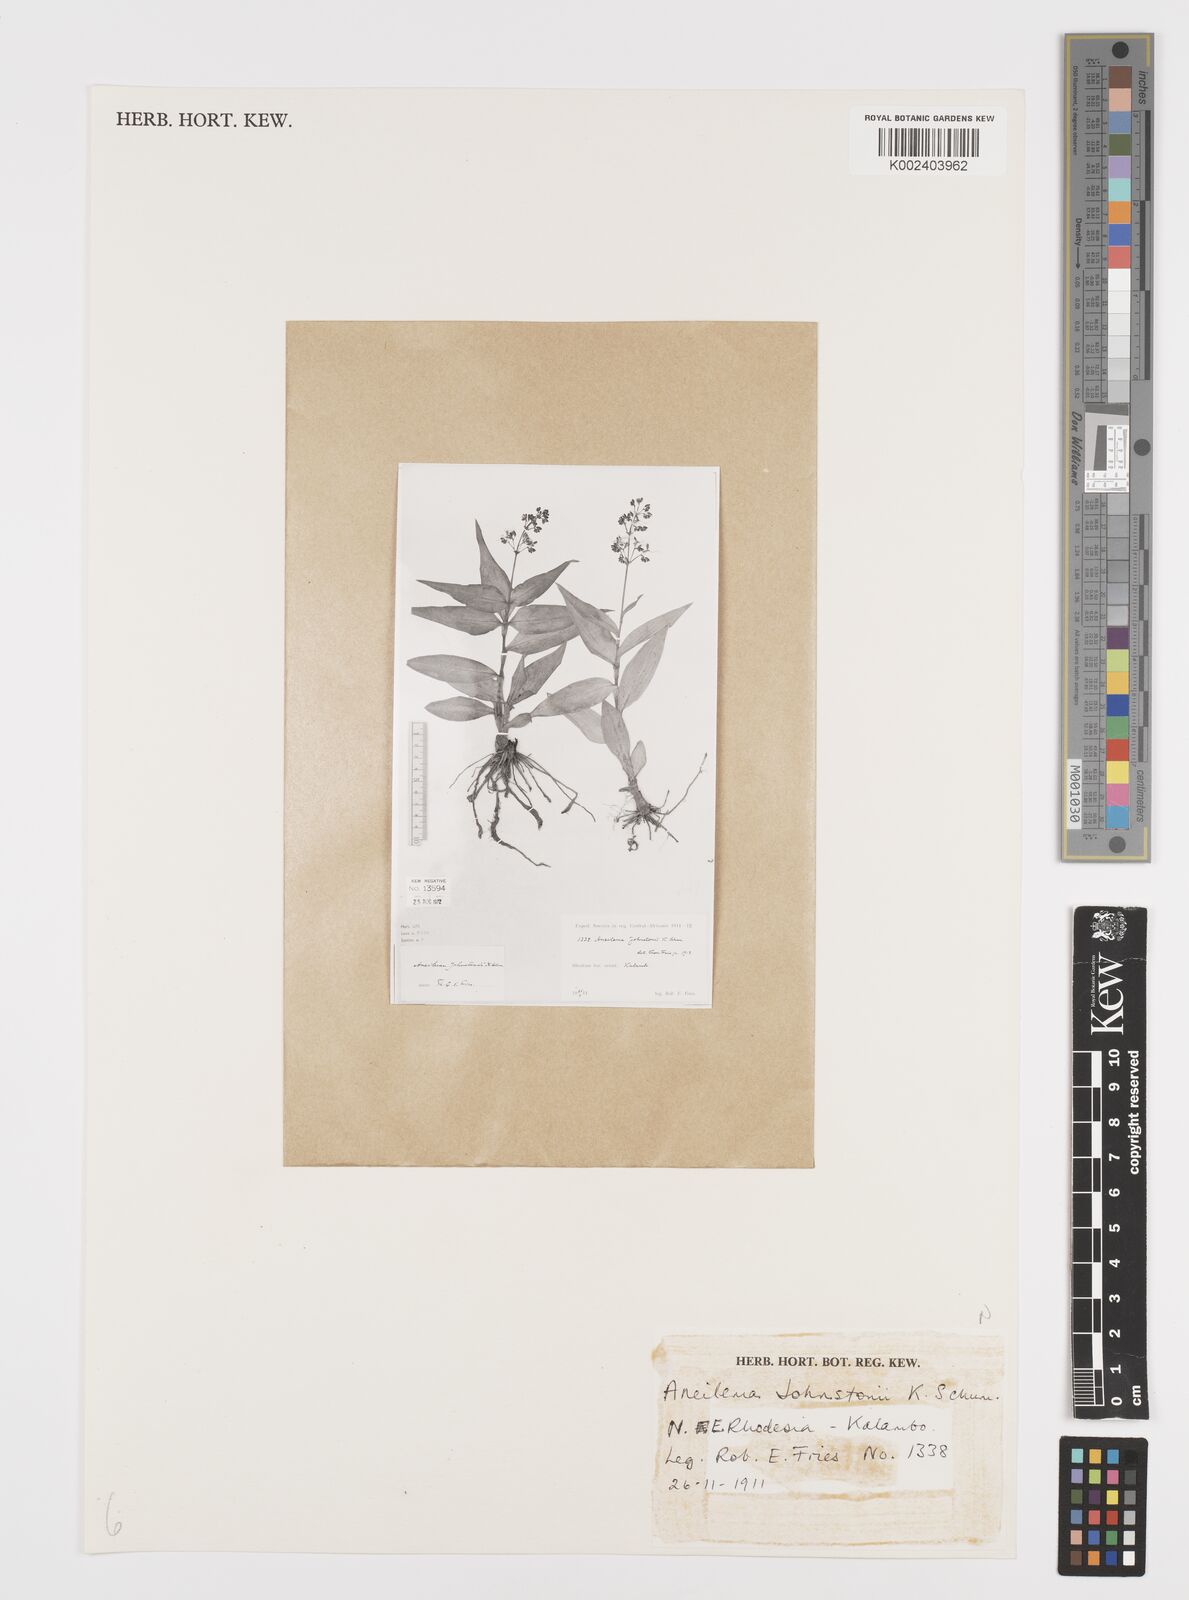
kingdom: Plantae
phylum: Tracheophyta
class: Liliopsida
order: Commelinales
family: Commelinaceae
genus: Aneilema
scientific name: Aneilema johnstonii
